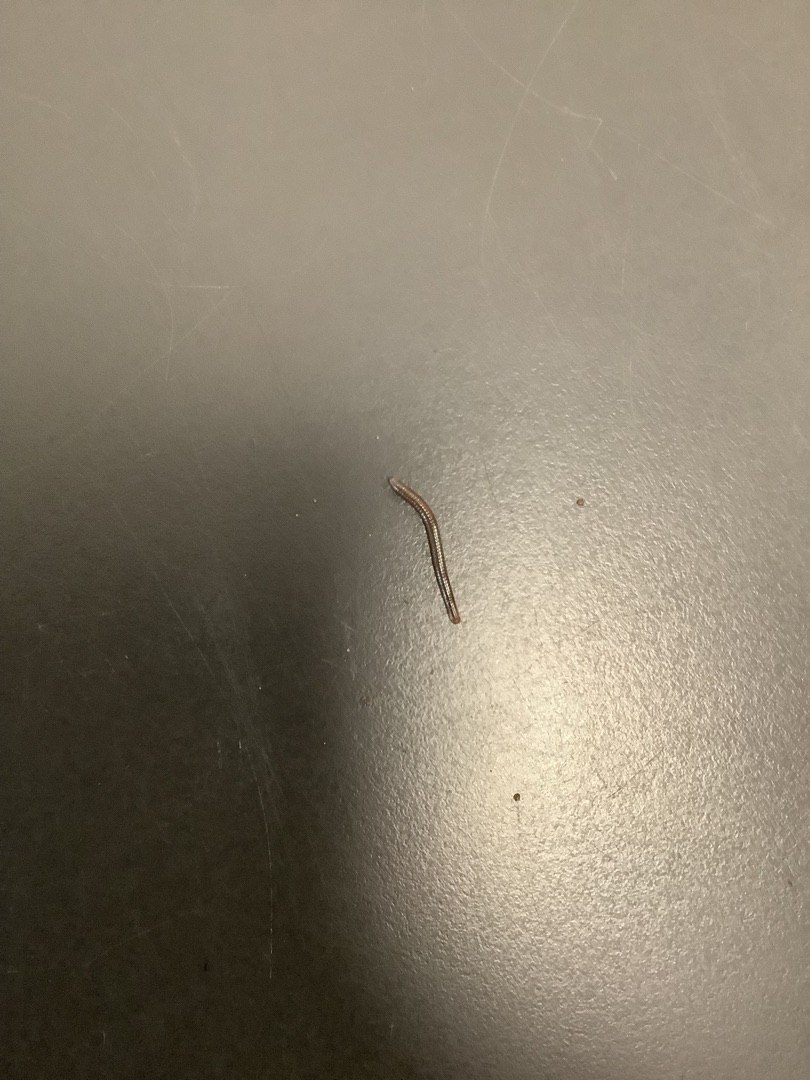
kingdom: Animalia
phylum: Arthropoda
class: Diplopoda
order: Julida
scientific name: Julida
